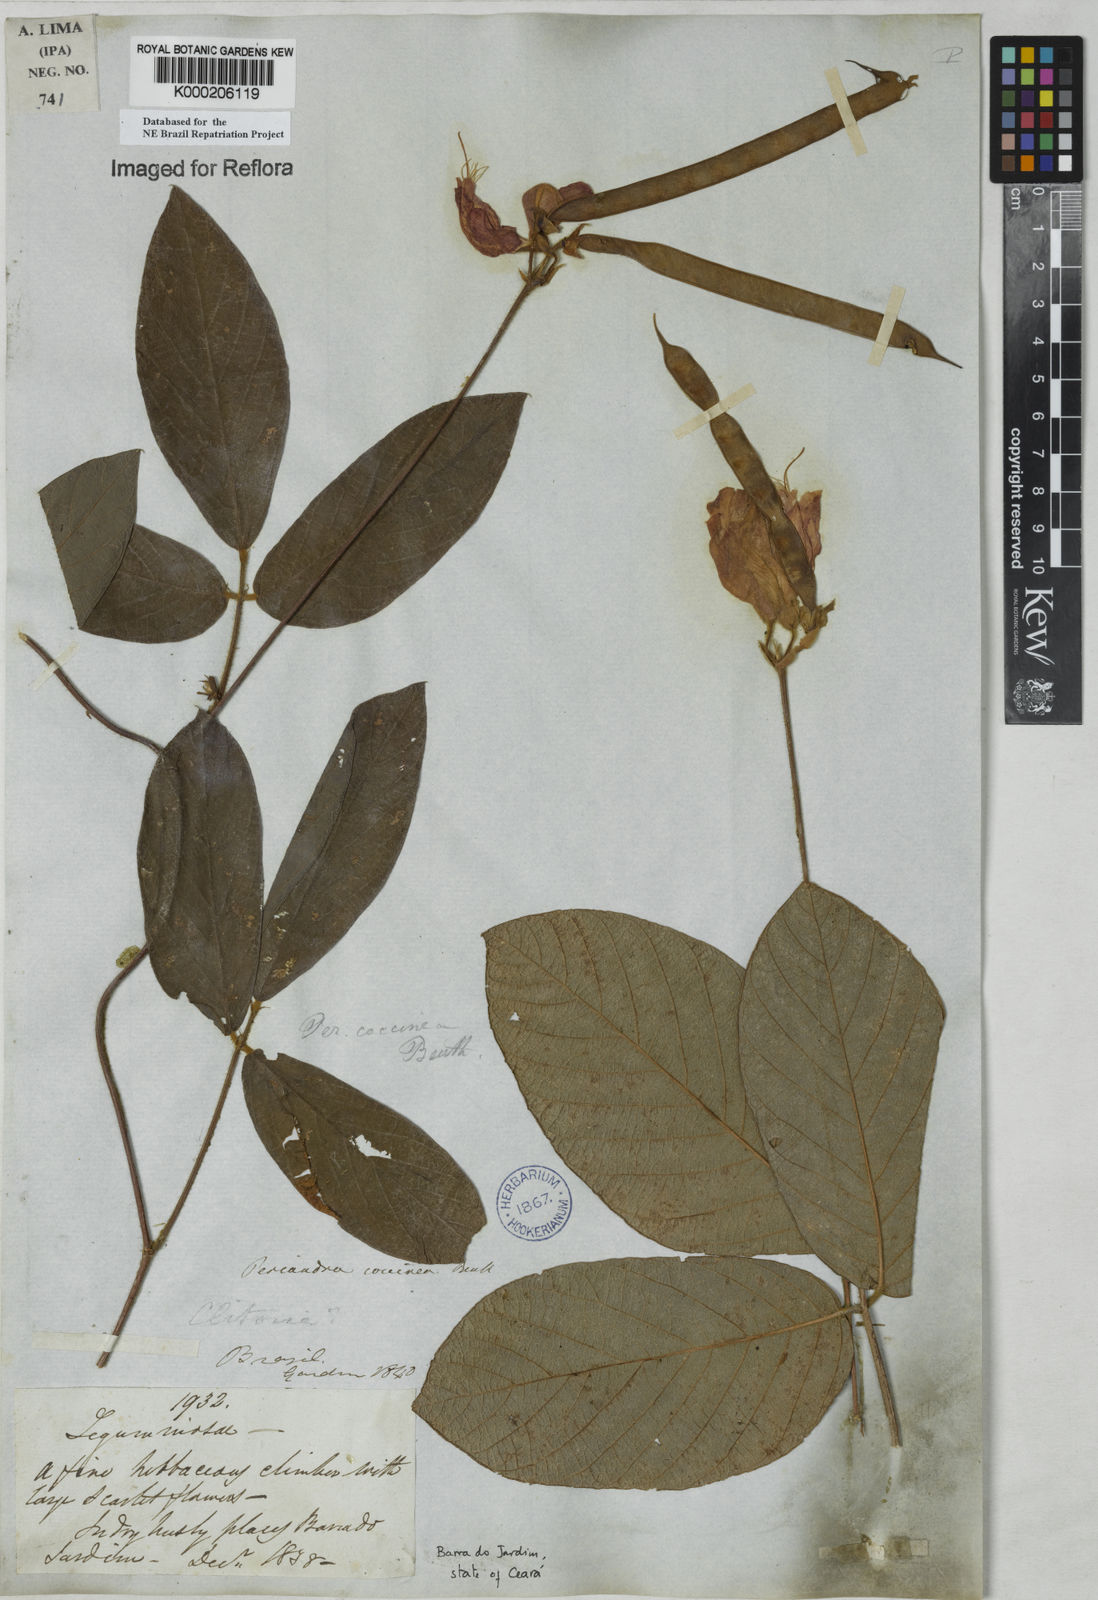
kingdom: Plantae
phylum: Tracheophyta
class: Magnoliopsida
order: Fabales
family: Fabaceae
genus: Periandra
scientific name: Periandra coccinea
